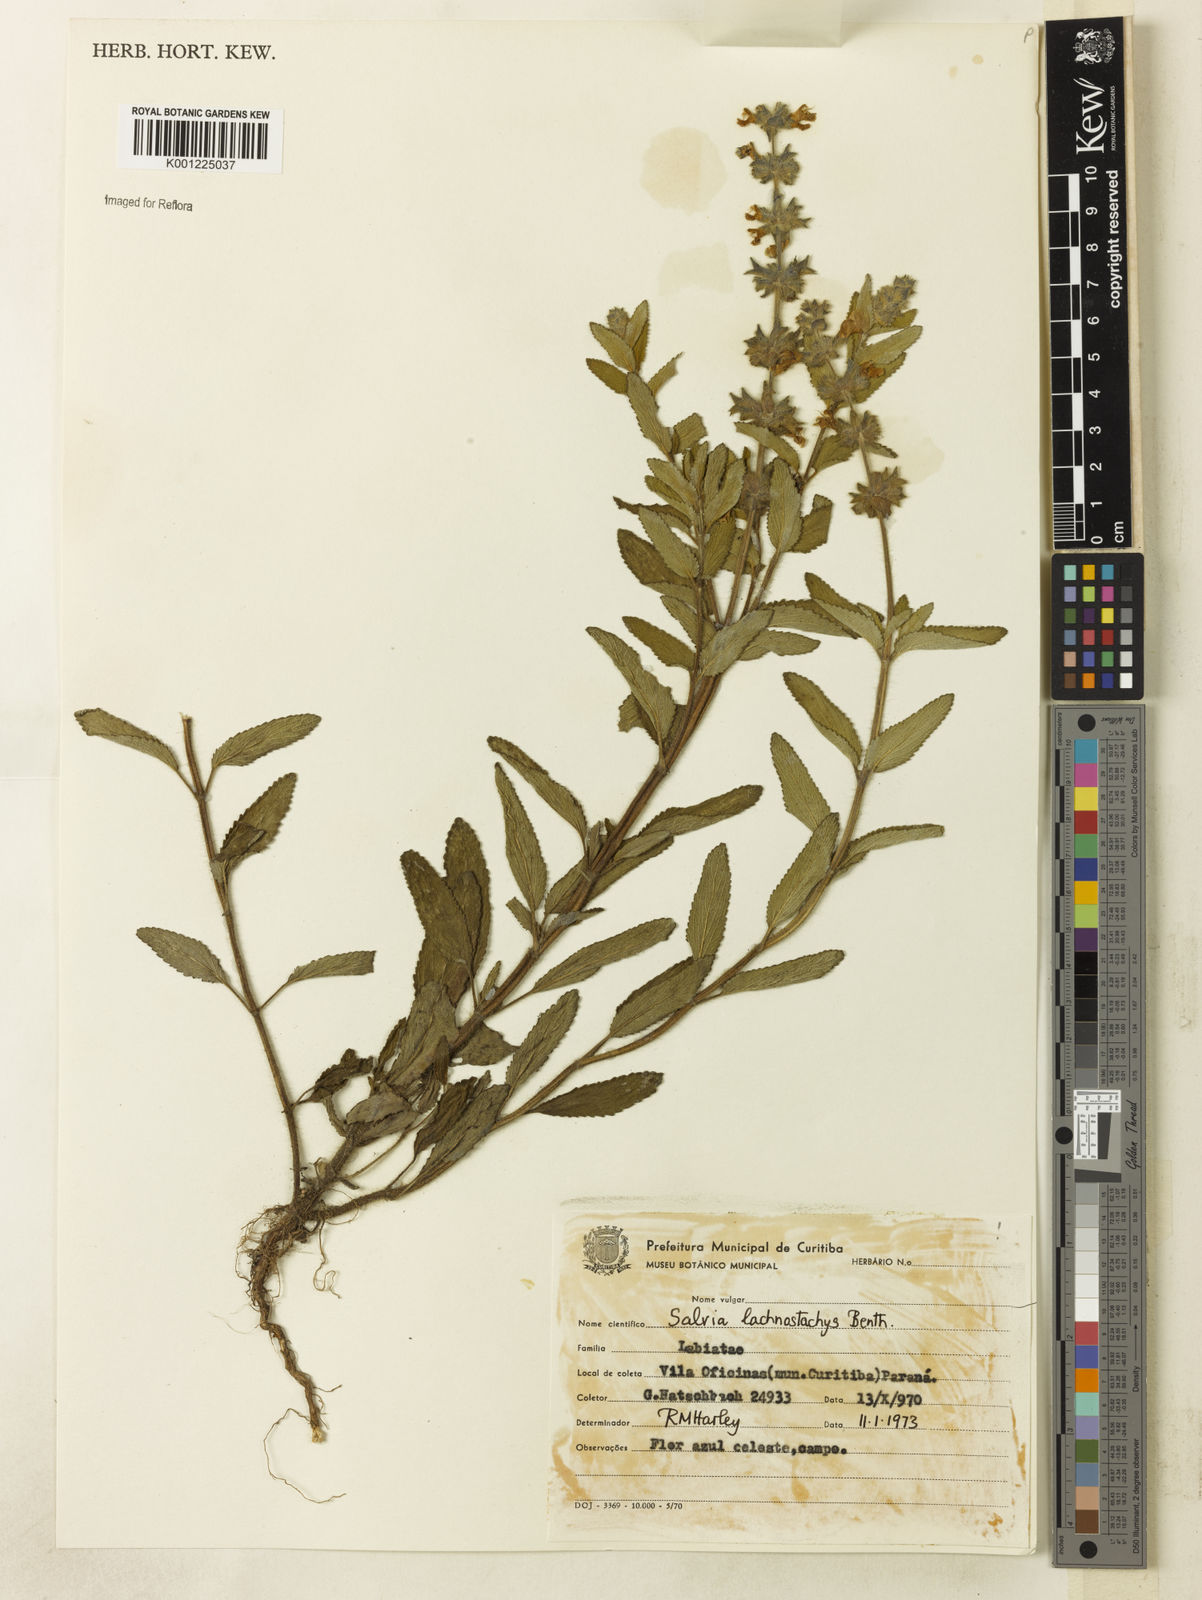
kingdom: Plantae
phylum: Tracheophyta
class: Magnoliopsida
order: Lamiales
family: Lamiaceae
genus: Salvia
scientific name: Salvia lachnostachys
